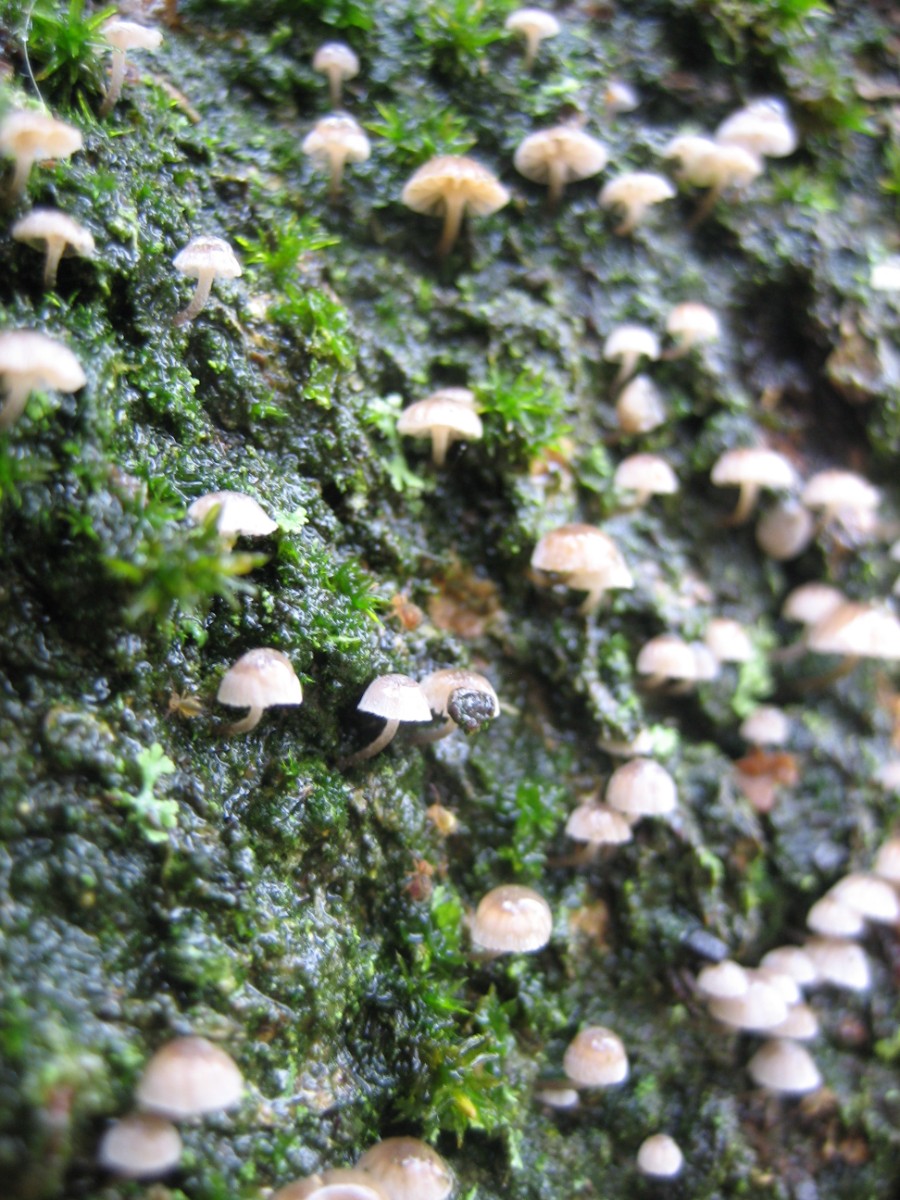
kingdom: Fungi
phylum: Basidiomycota
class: Agaricomycetes
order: Agaricales
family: Mycenaceae
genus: Mycena
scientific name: Mycena meliigena
